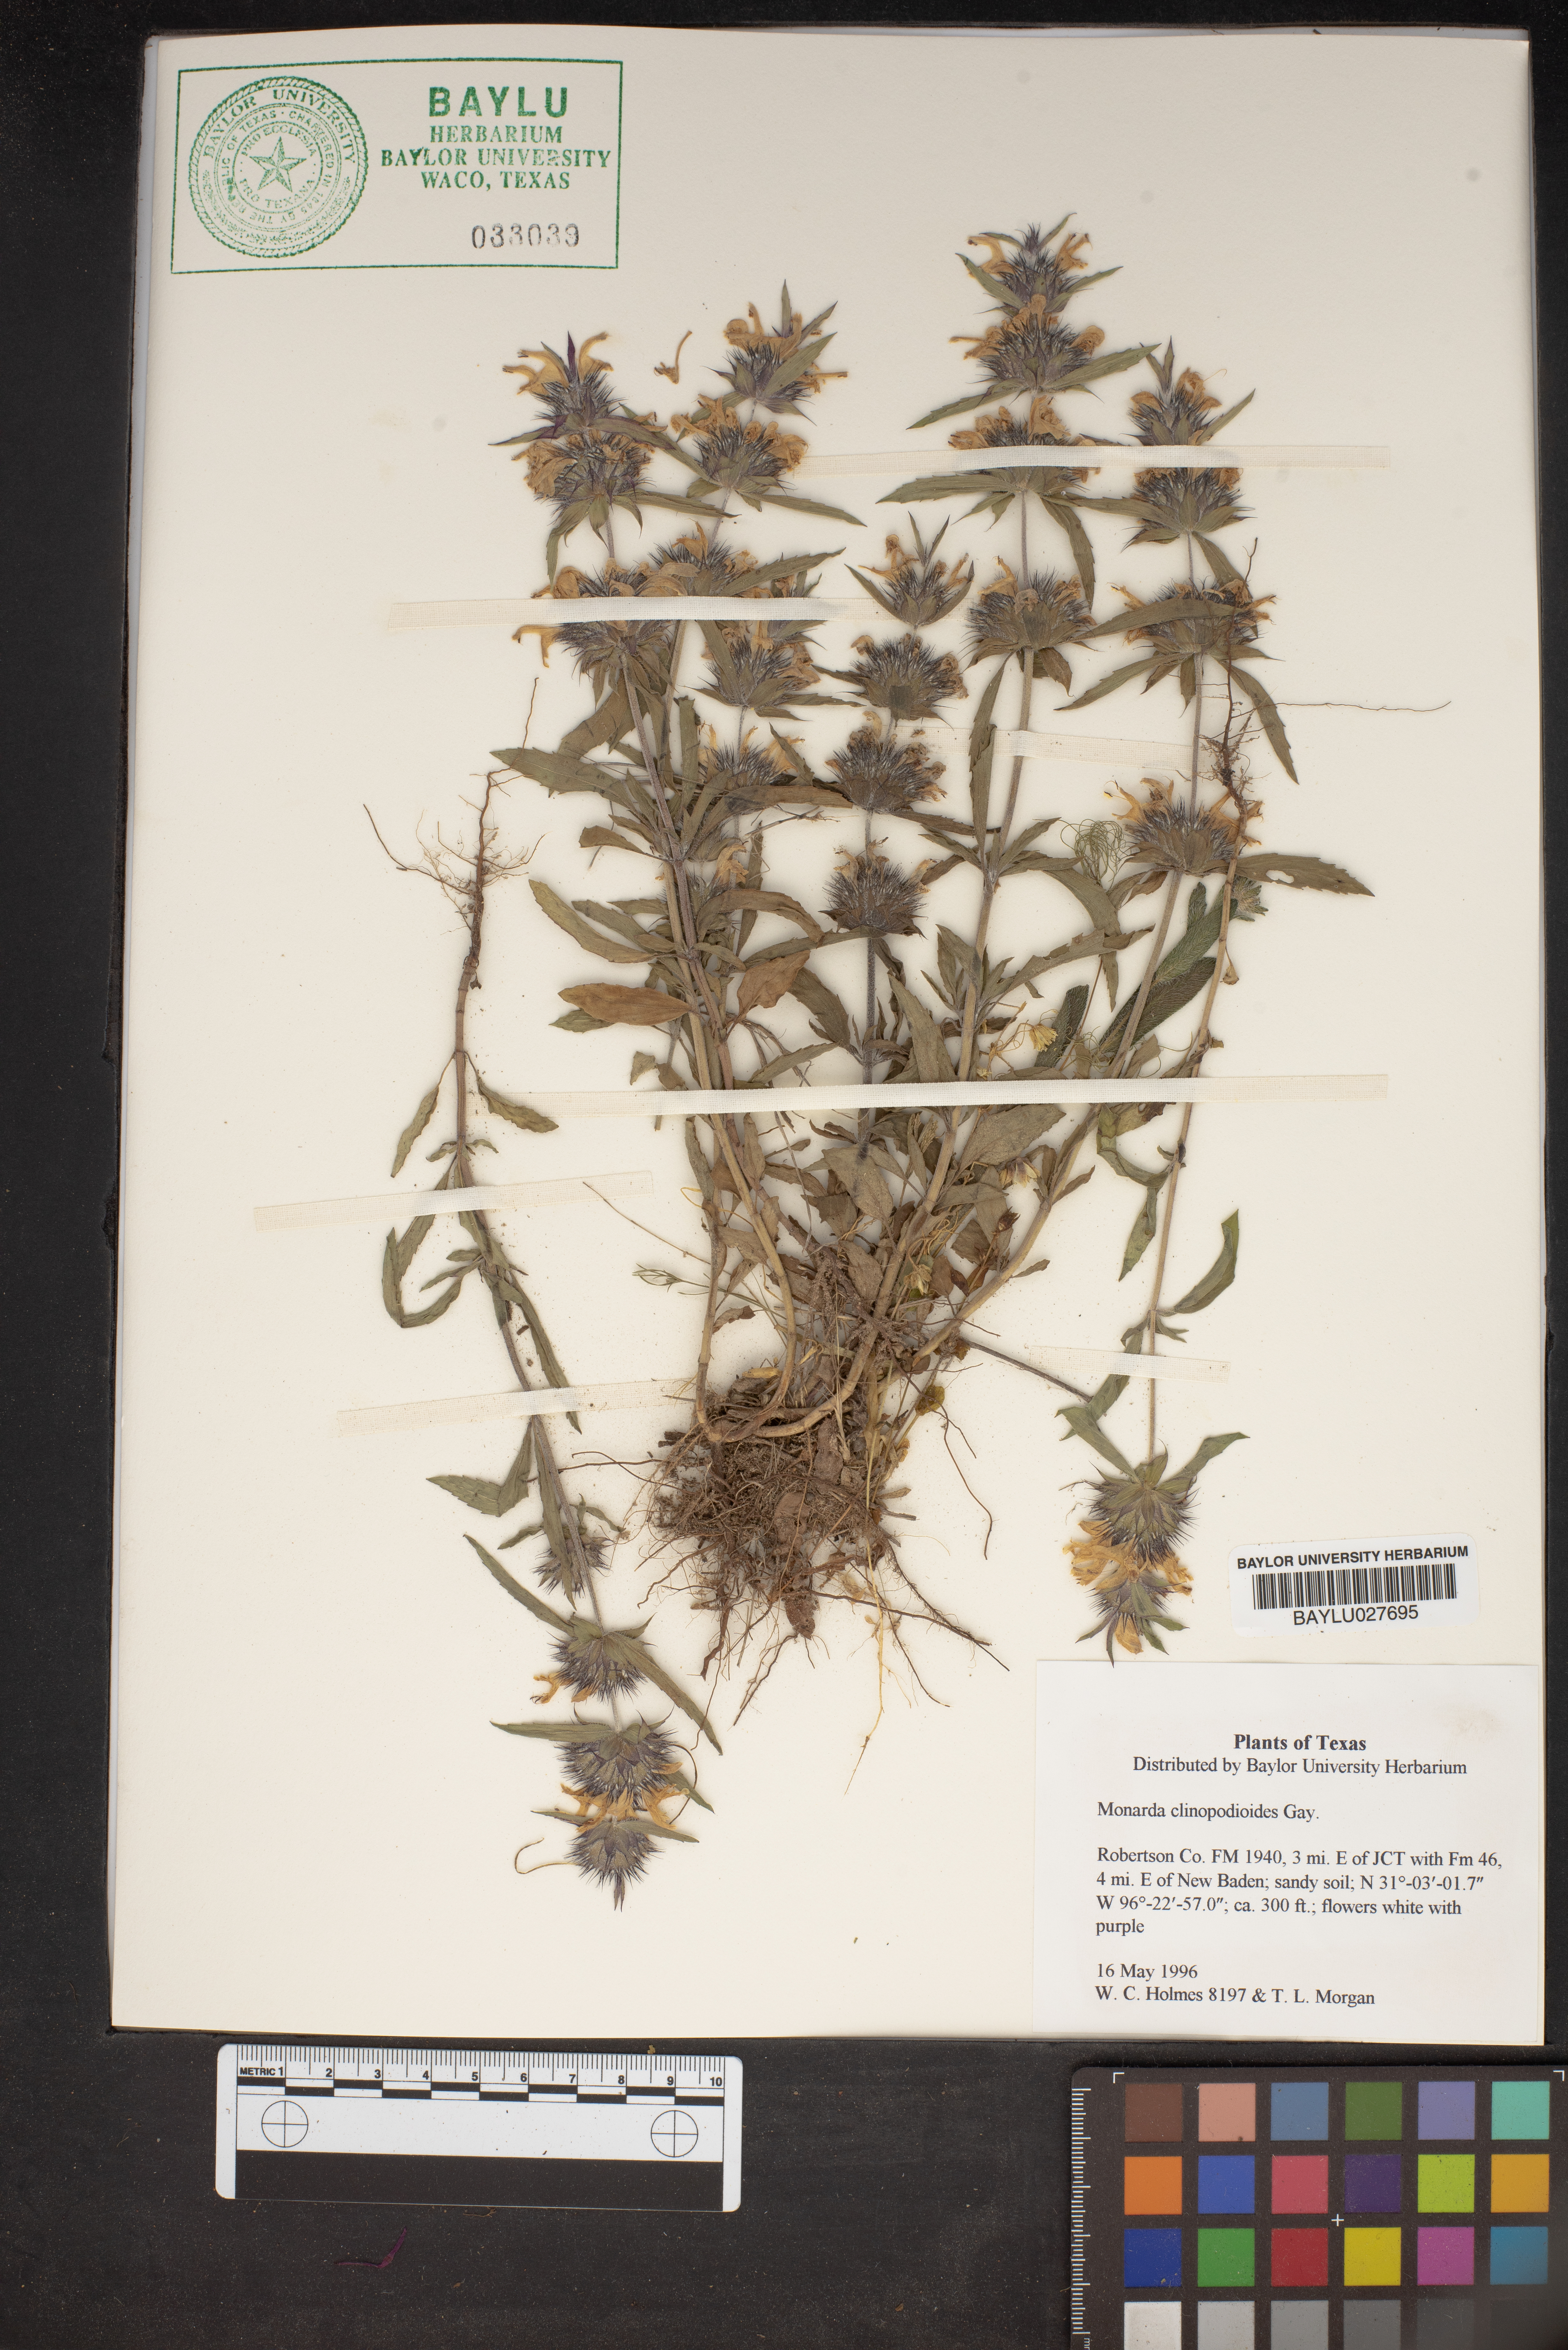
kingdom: Plantae
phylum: Tracheophyta
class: Magnoliopsida
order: Lamiales
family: Lamiaceae
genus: Monarda
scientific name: Monarda clinopodioides
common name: Basil beebalm
